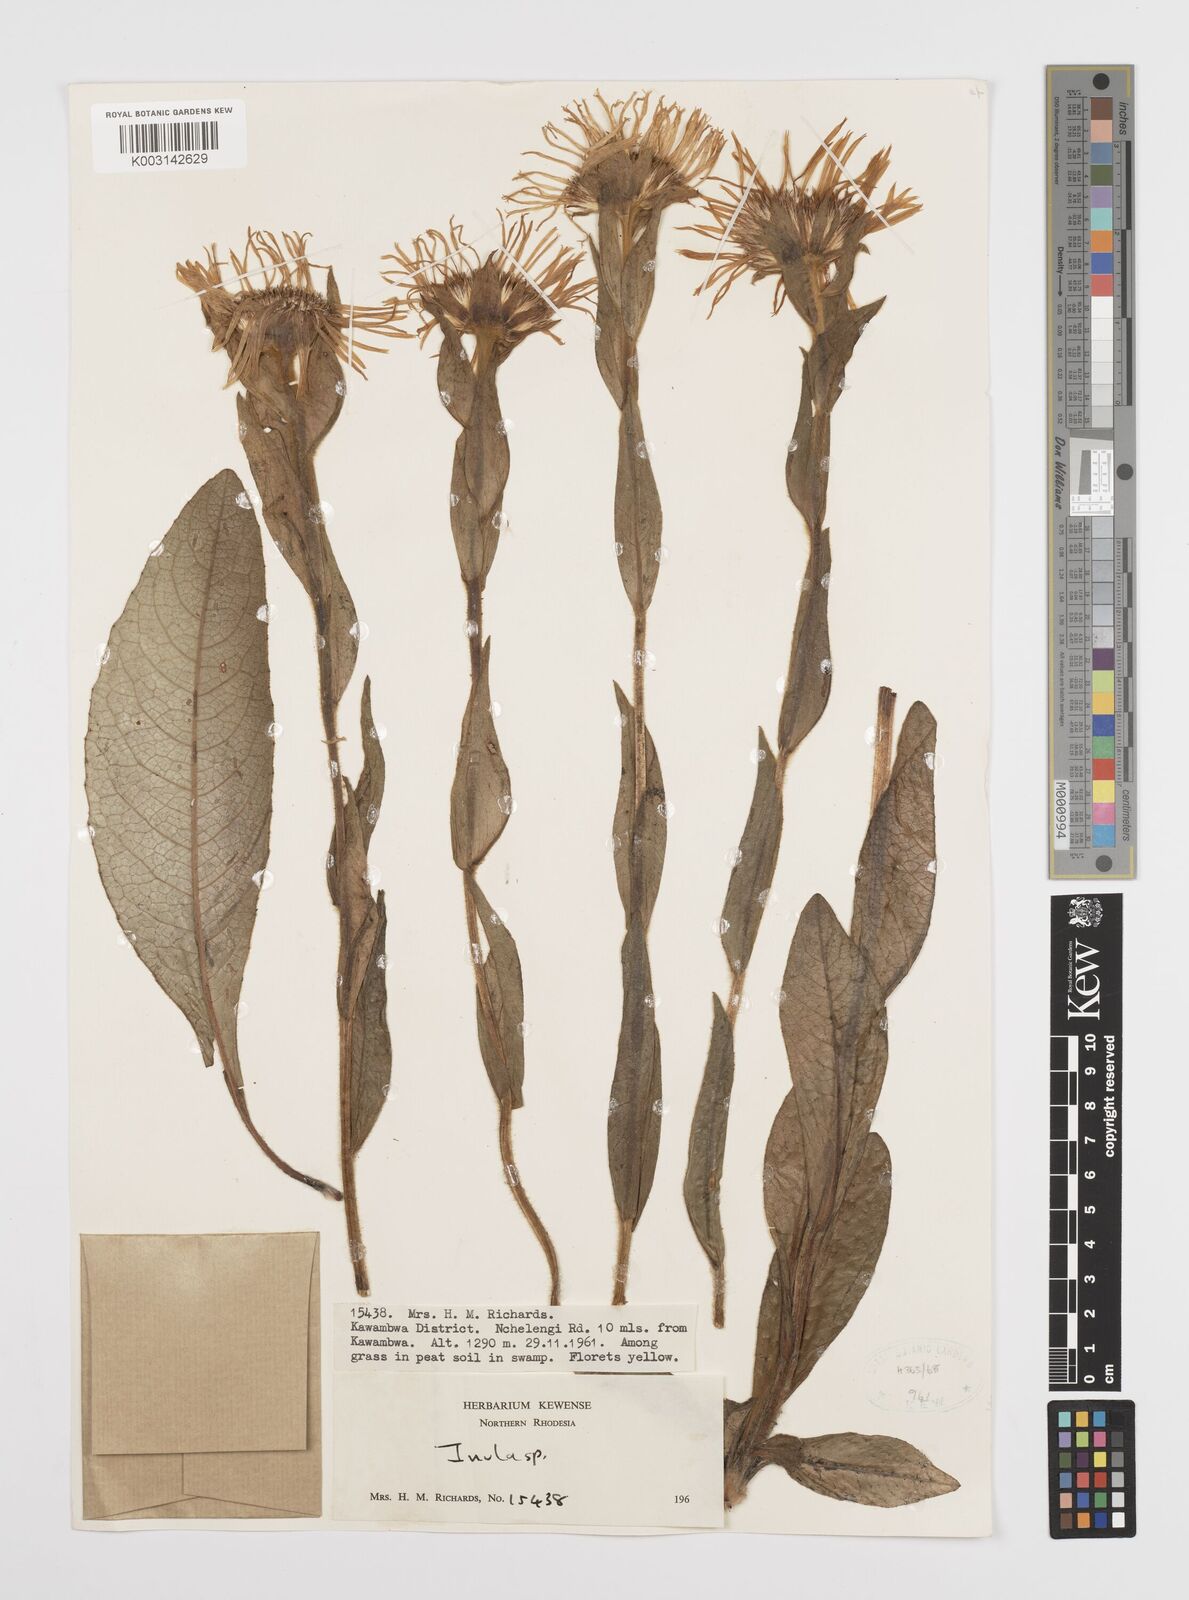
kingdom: Plantae
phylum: Tracheophyta
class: Magnoliopsida
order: Asterales
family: Asteraceae
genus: Inula
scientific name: Inula paludosa
